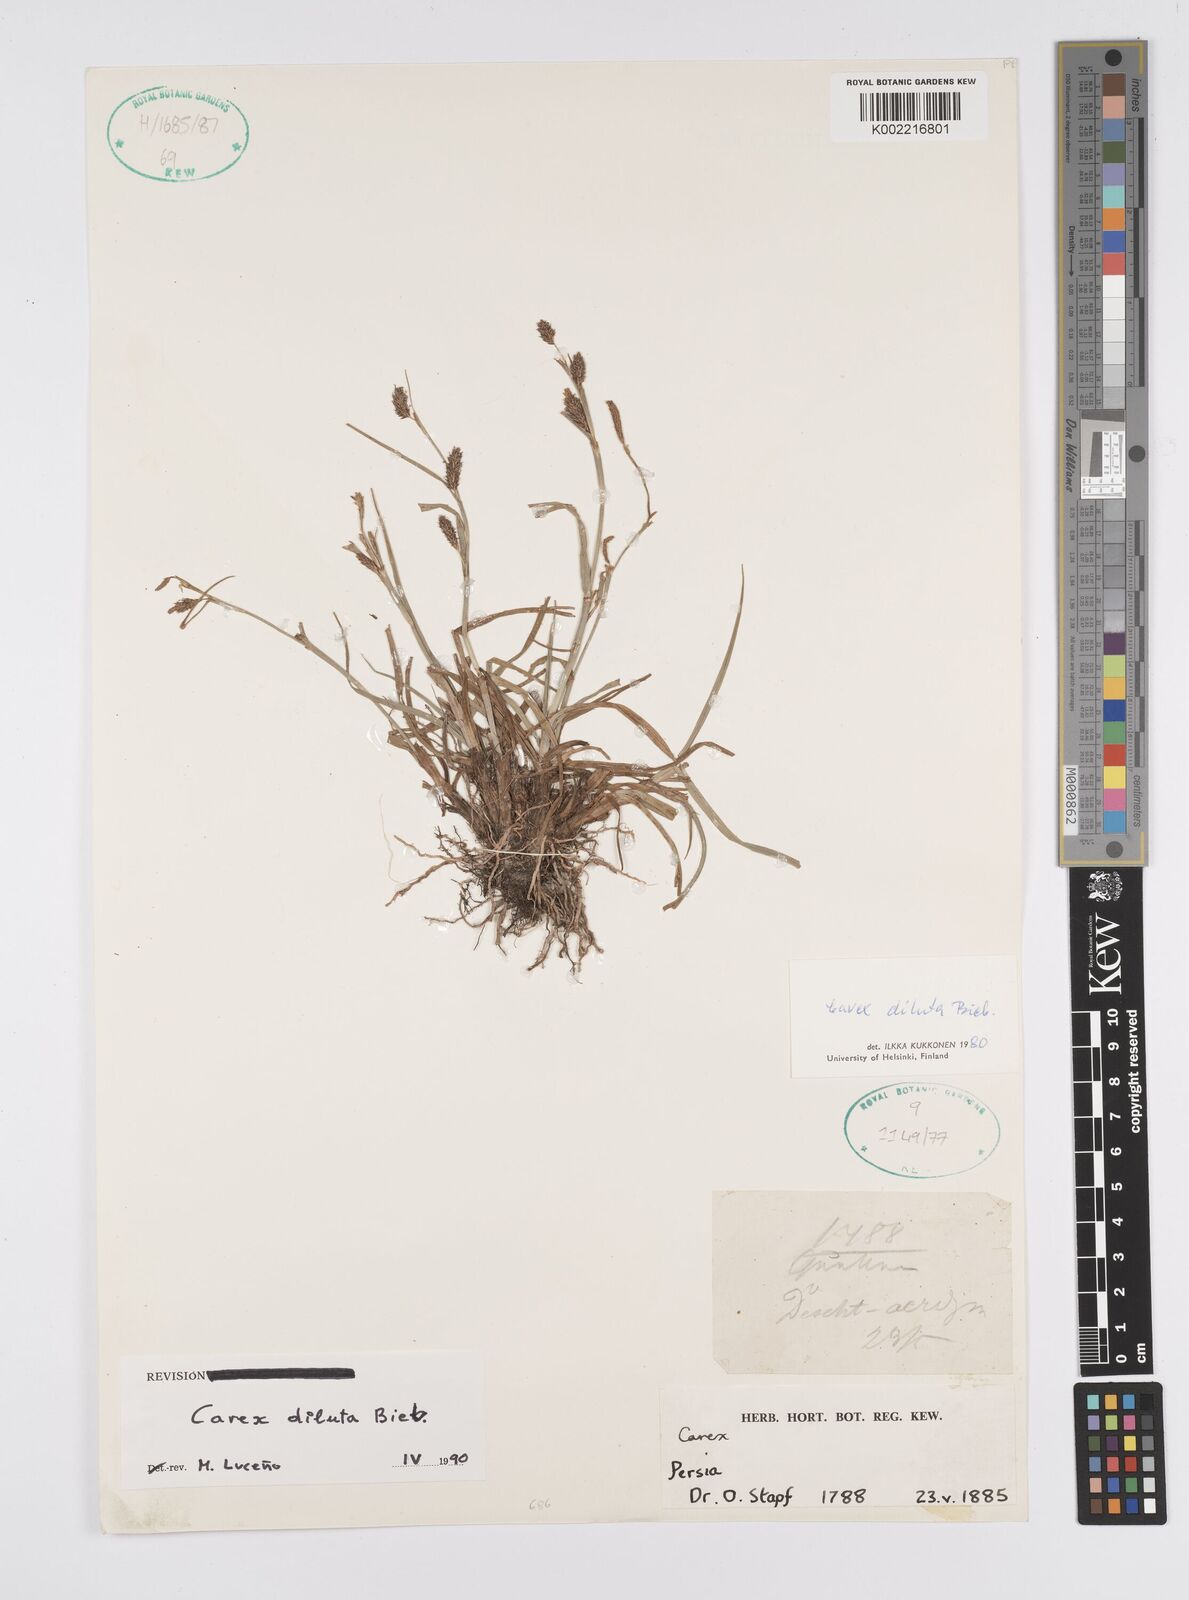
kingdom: Plantae
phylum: Tracheophyta
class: Liliopsida
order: Poales
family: Cyperaceae
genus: Carex
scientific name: Carex diluta
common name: Sedge
